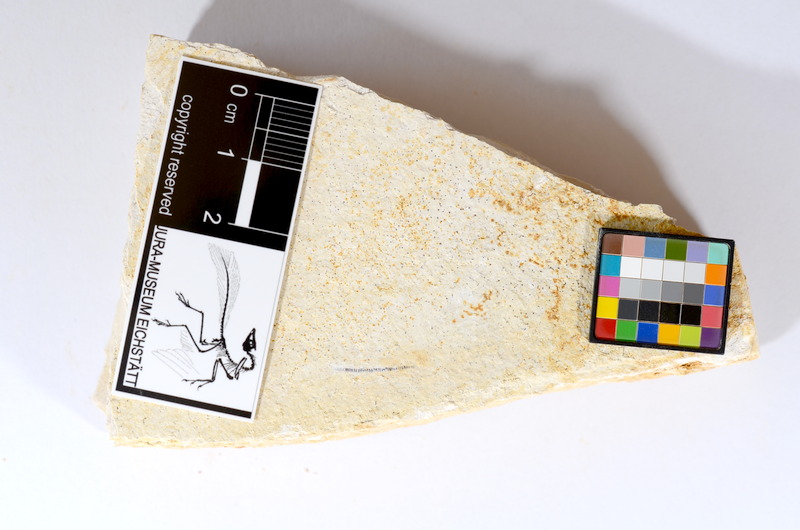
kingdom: Animalia
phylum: Chordata
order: Salmoniformes
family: Orthogonikleithridae
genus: Orthogonikleithrus
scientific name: Orthogonikleithrus hoelli
